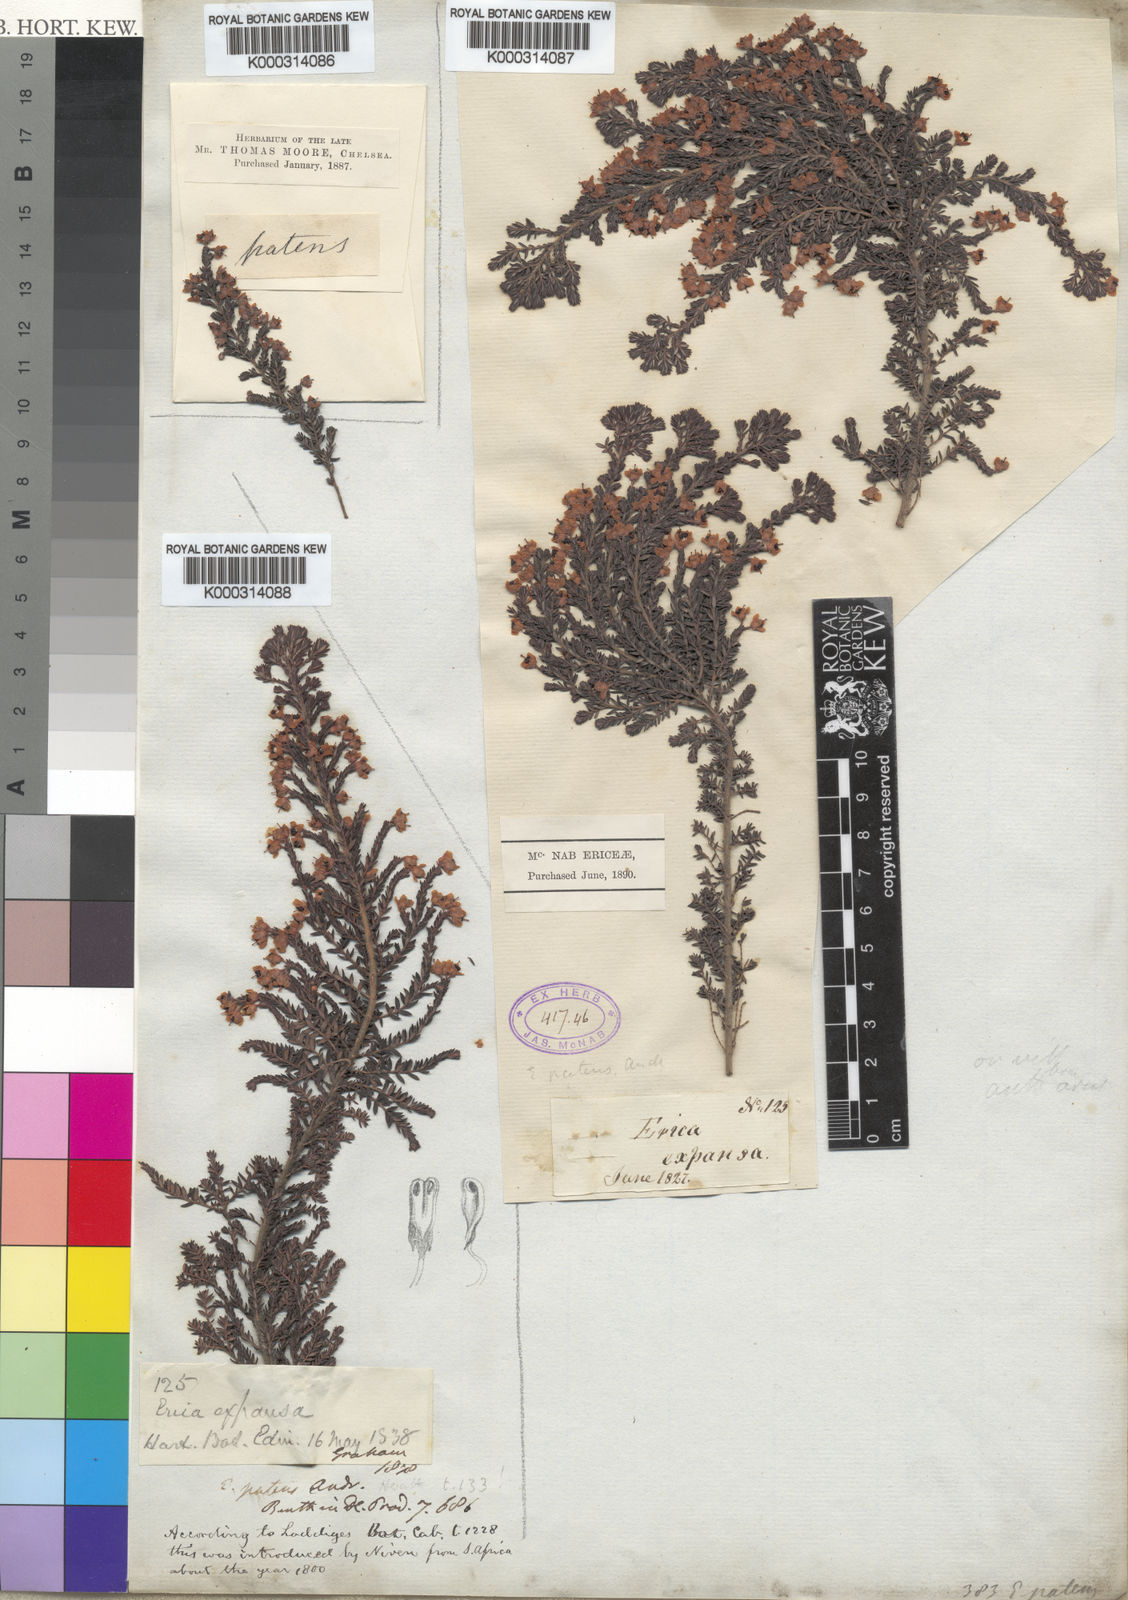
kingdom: Plantae
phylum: Tracheophyta
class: Magnoliopsida
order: Ericales
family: Ericaceae
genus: Erica
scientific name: Erica patens
